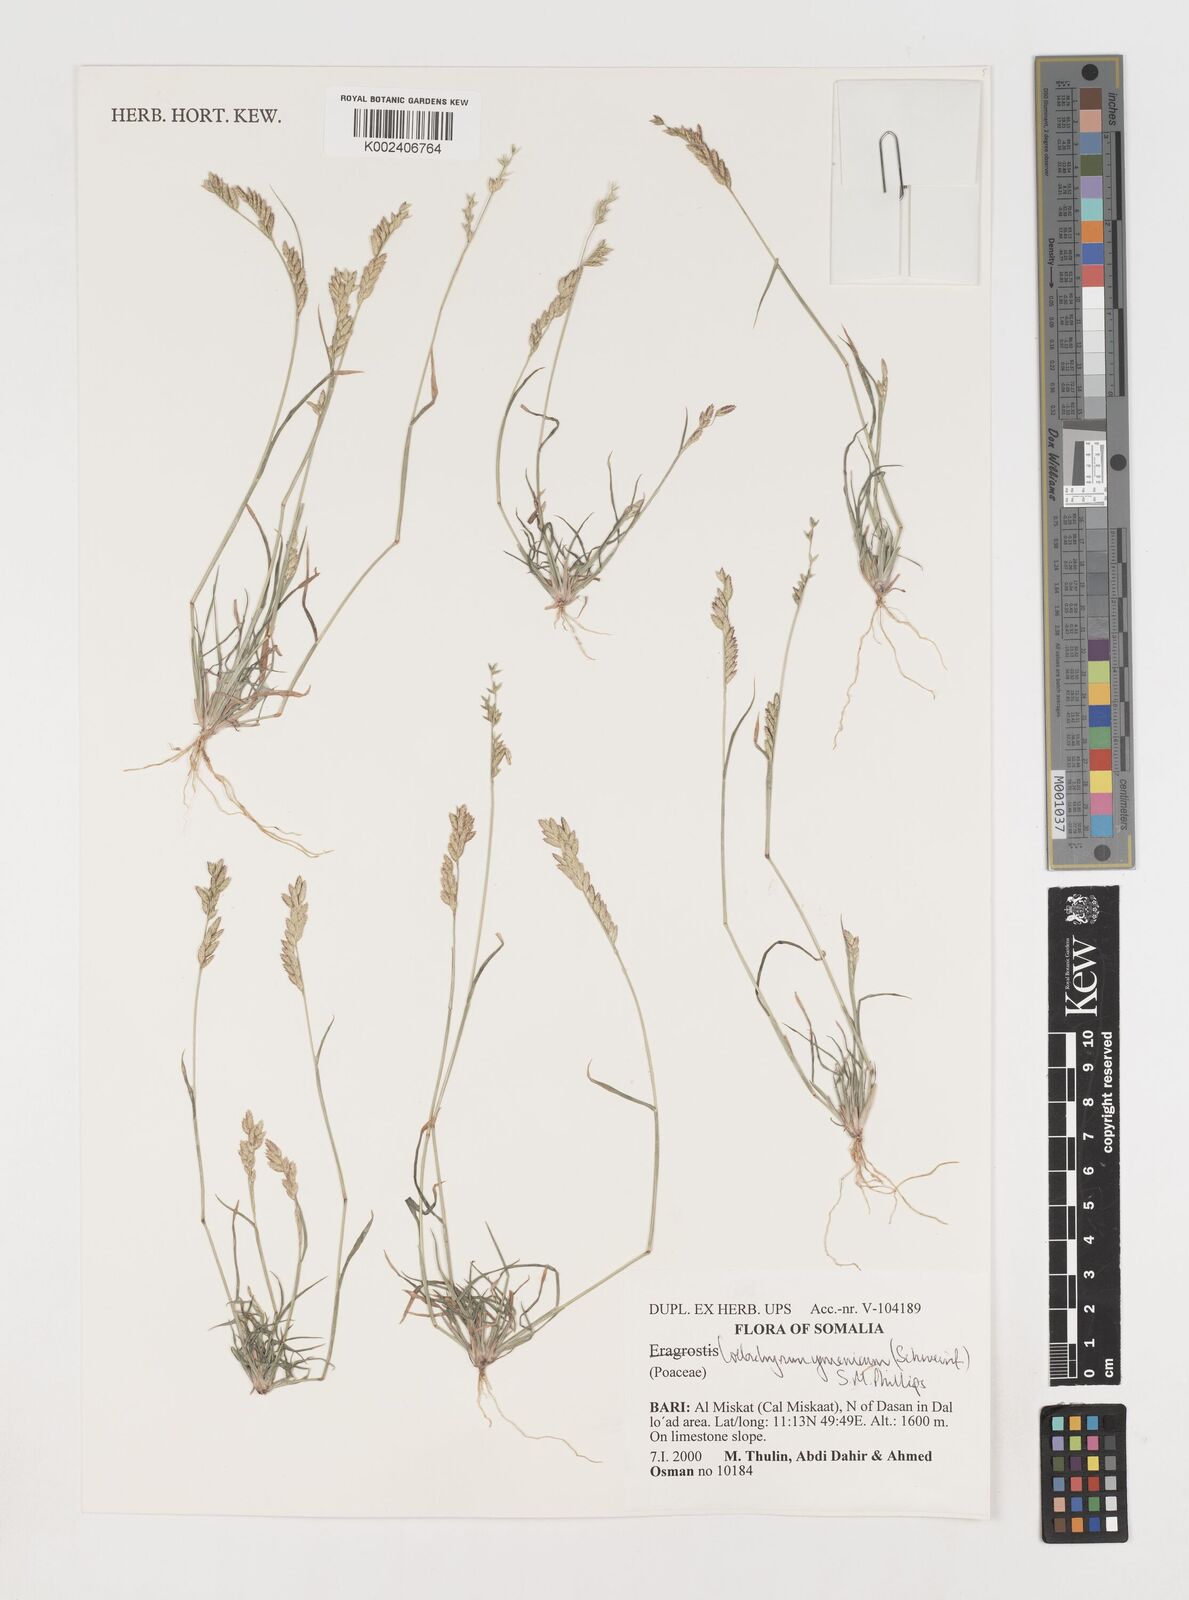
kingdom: Plantae
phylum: Tracheophyta
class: Liliopsida
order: Poales
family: Poaceae
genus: Disakisperma
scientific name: Disakisperma yemenicum
